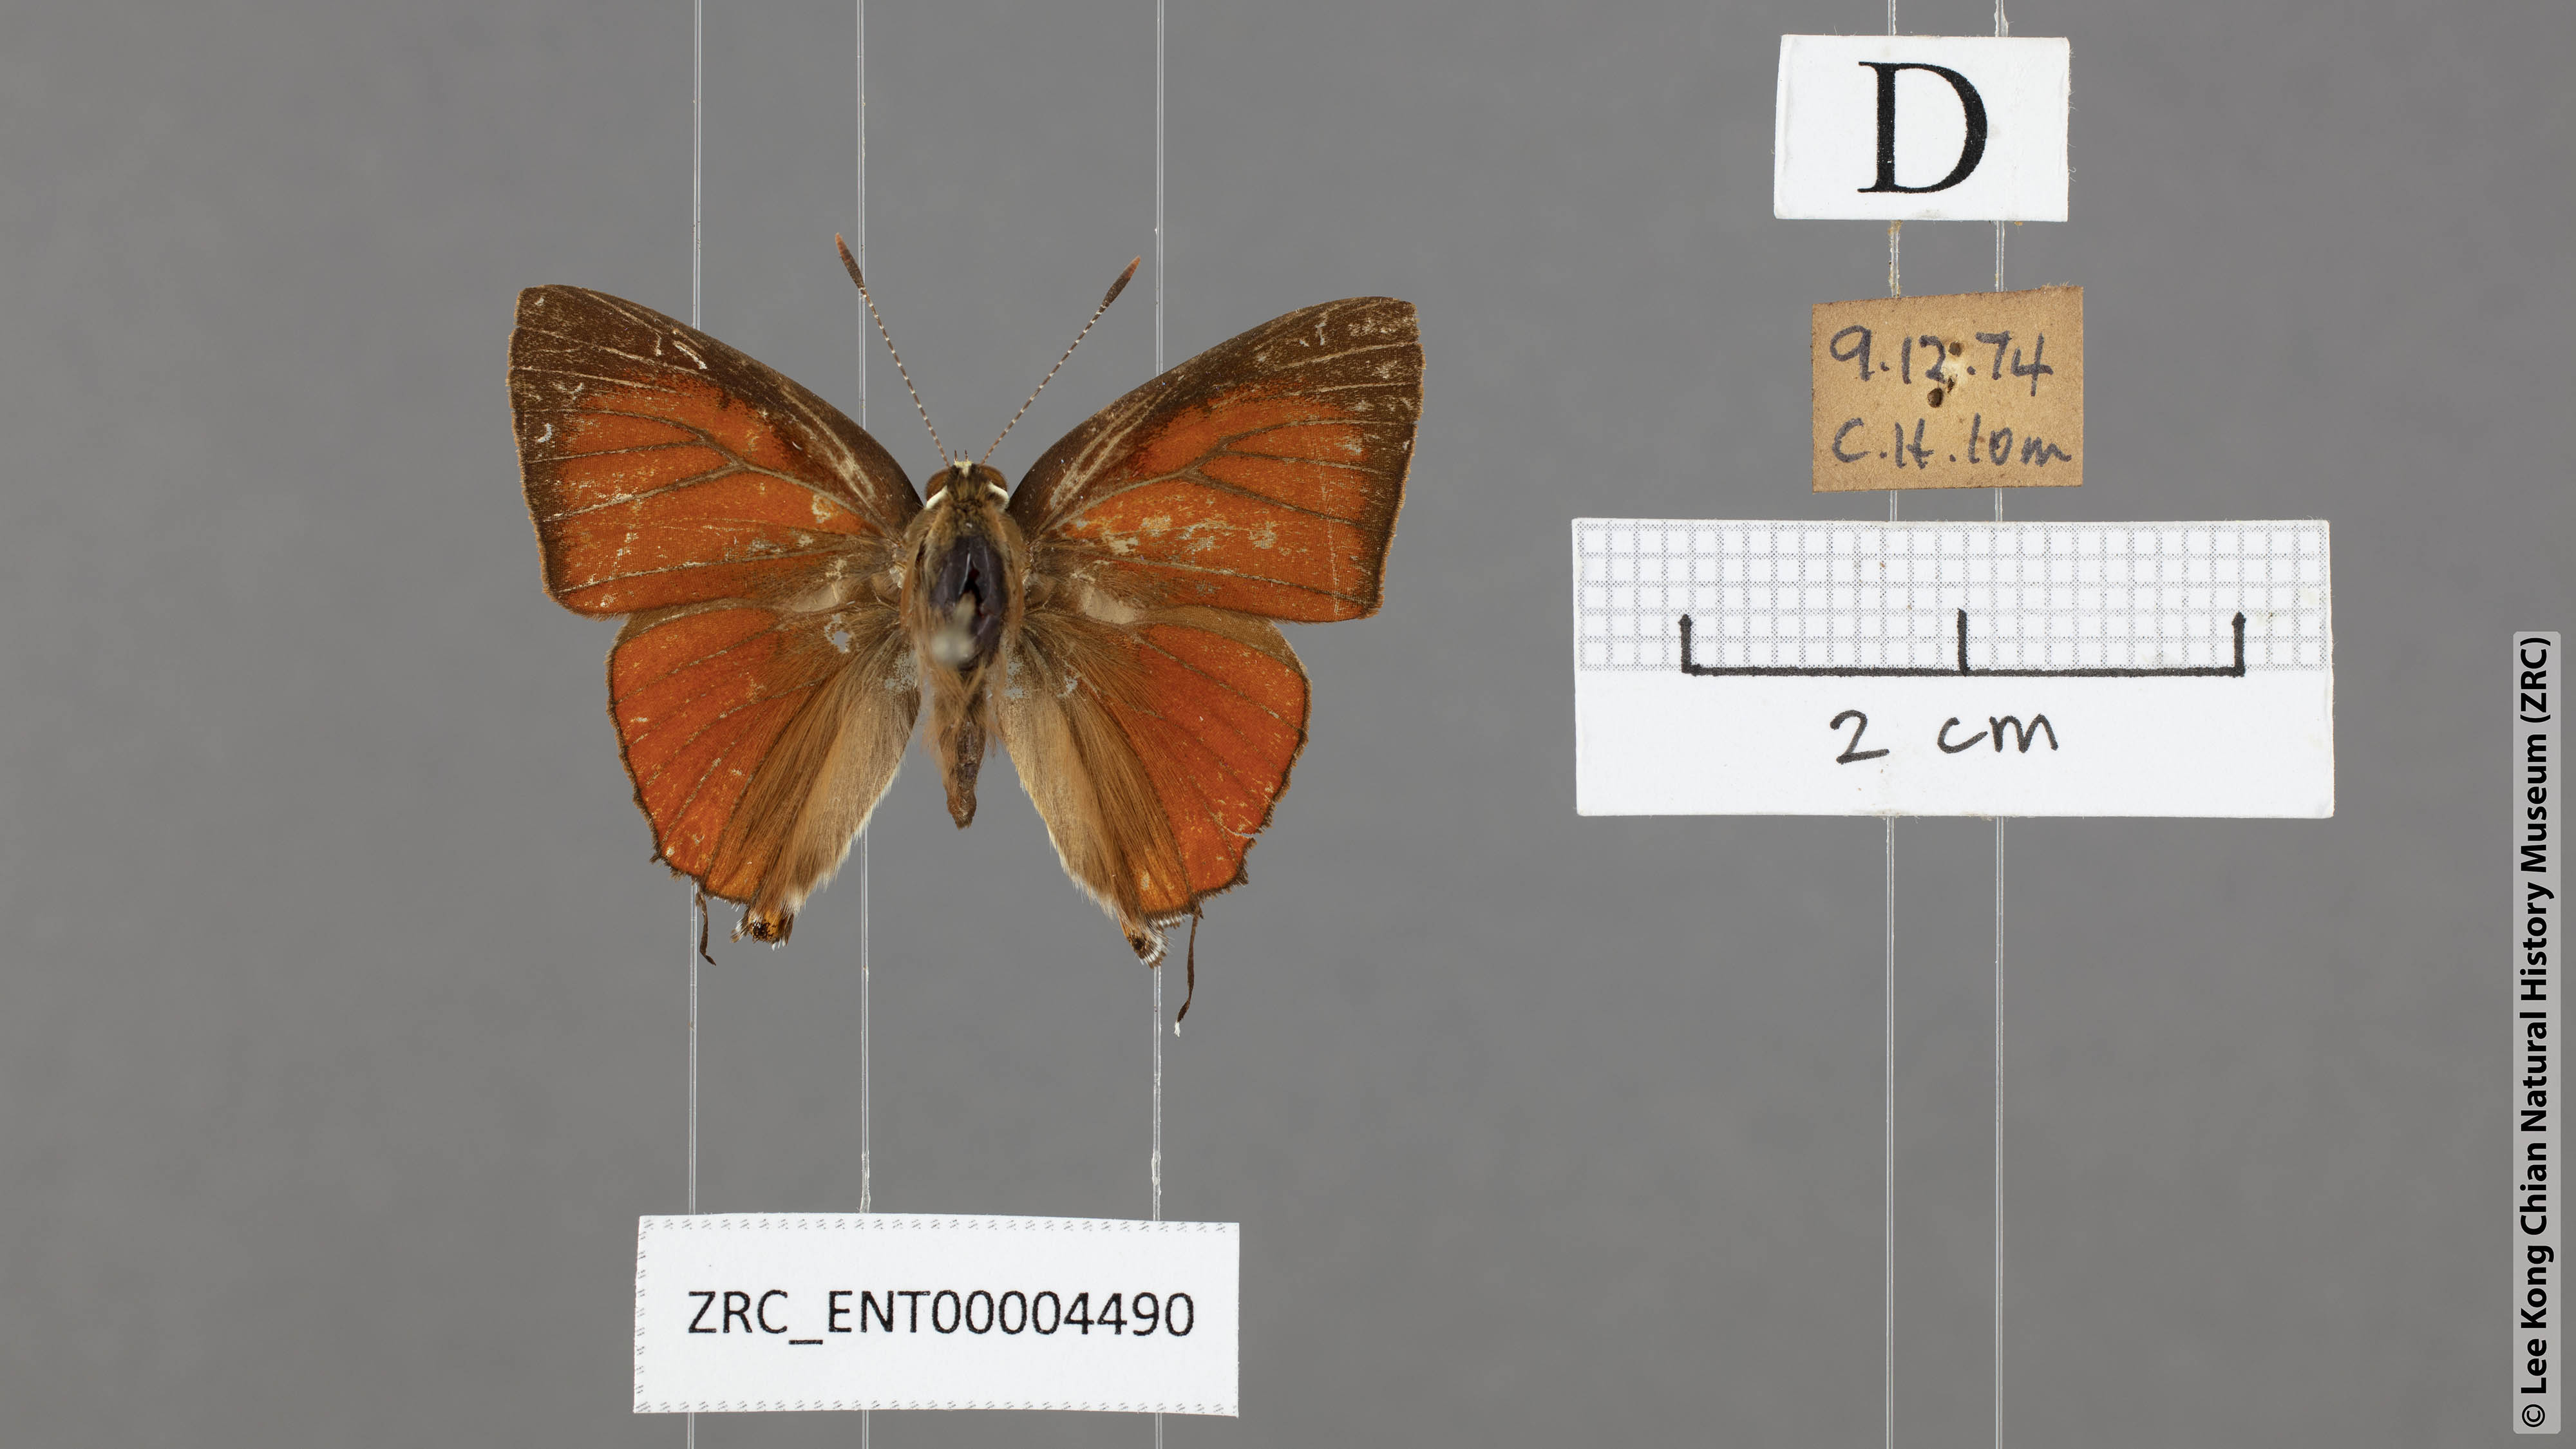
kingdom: Animalia
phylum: Arthropoda
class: Insecta
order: Lepidoptera
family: Lycaenidae
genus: Rapala
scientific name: Rapala iarbas
